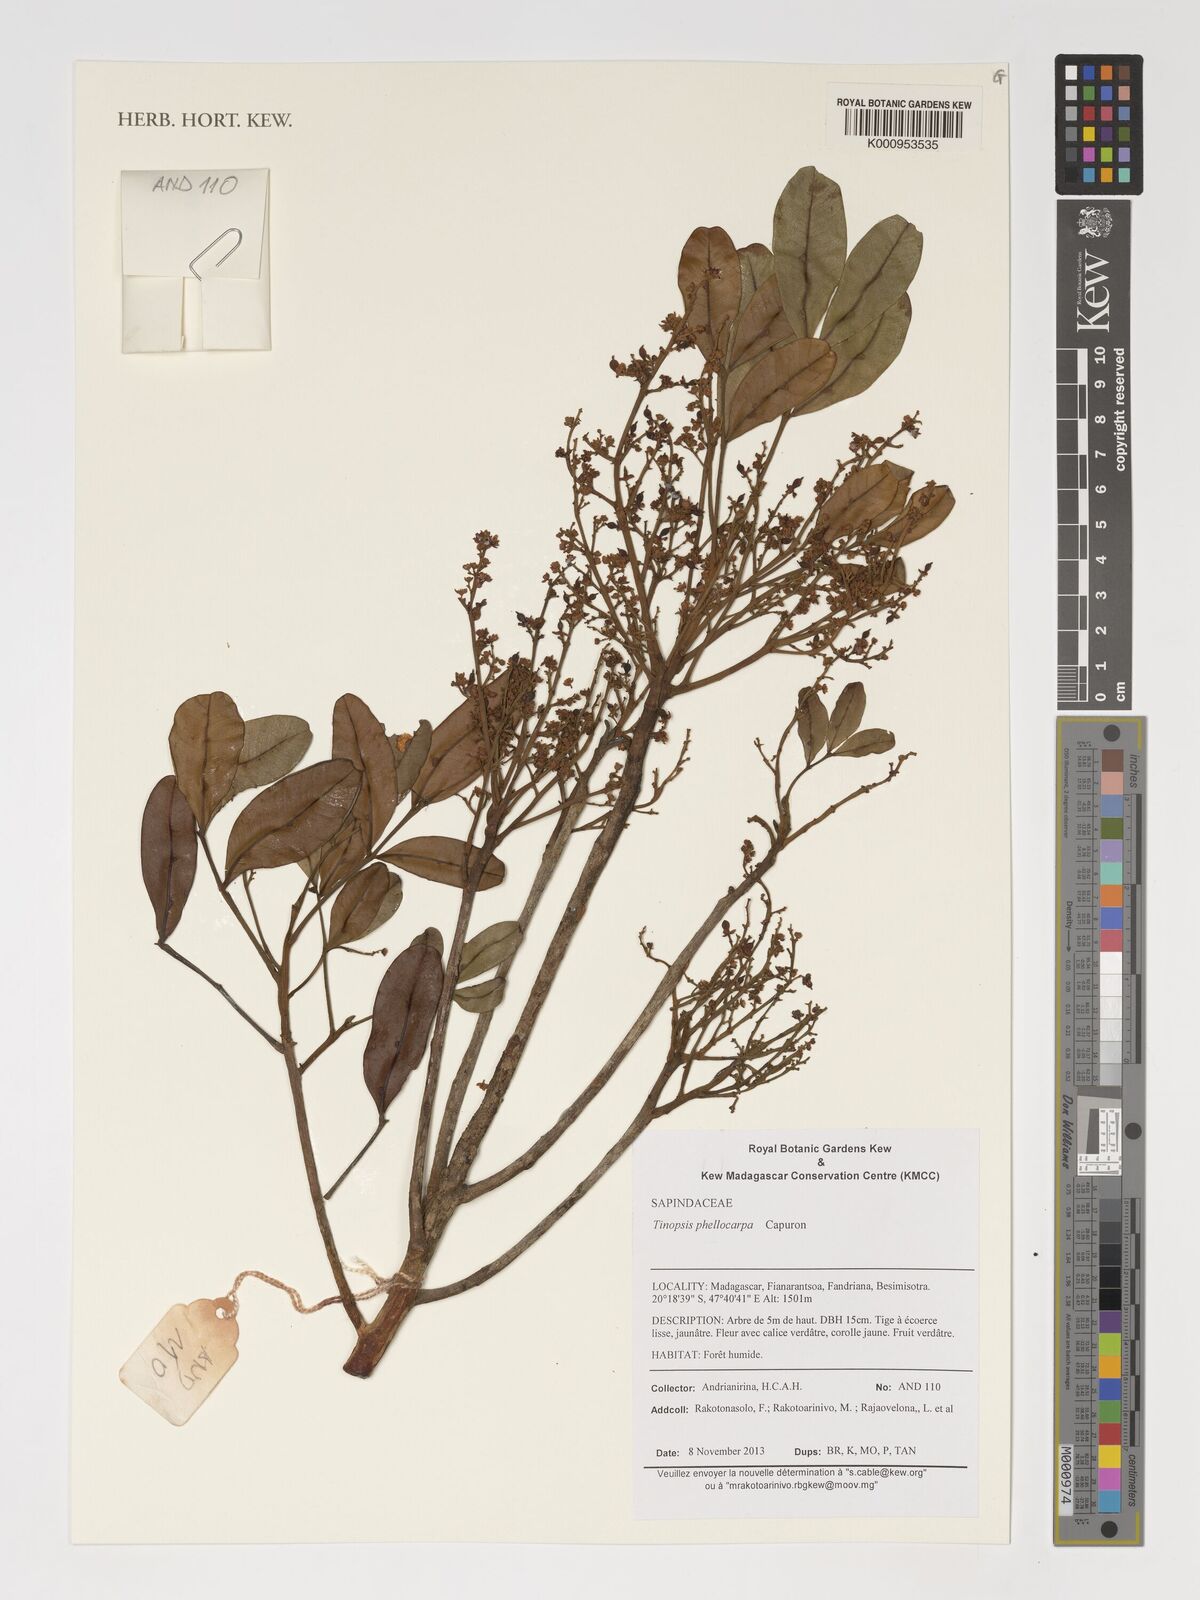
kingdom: Plantae
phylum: Tracheophyta
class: Magnoliopsida
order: Sapindales
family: Sapindaceae
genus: Tina
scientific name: Tina phellocarpa
